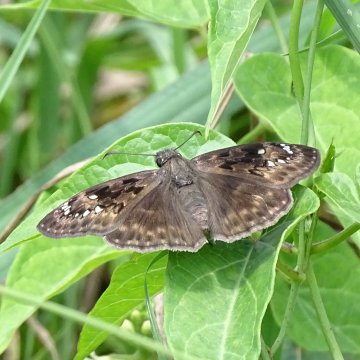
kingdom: Animalia
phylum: Arthropoda
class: Insecta
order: Lepidoptera
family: Hesperiidae
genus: Gesta
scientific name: Gesta
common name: Horace's Duskywing
